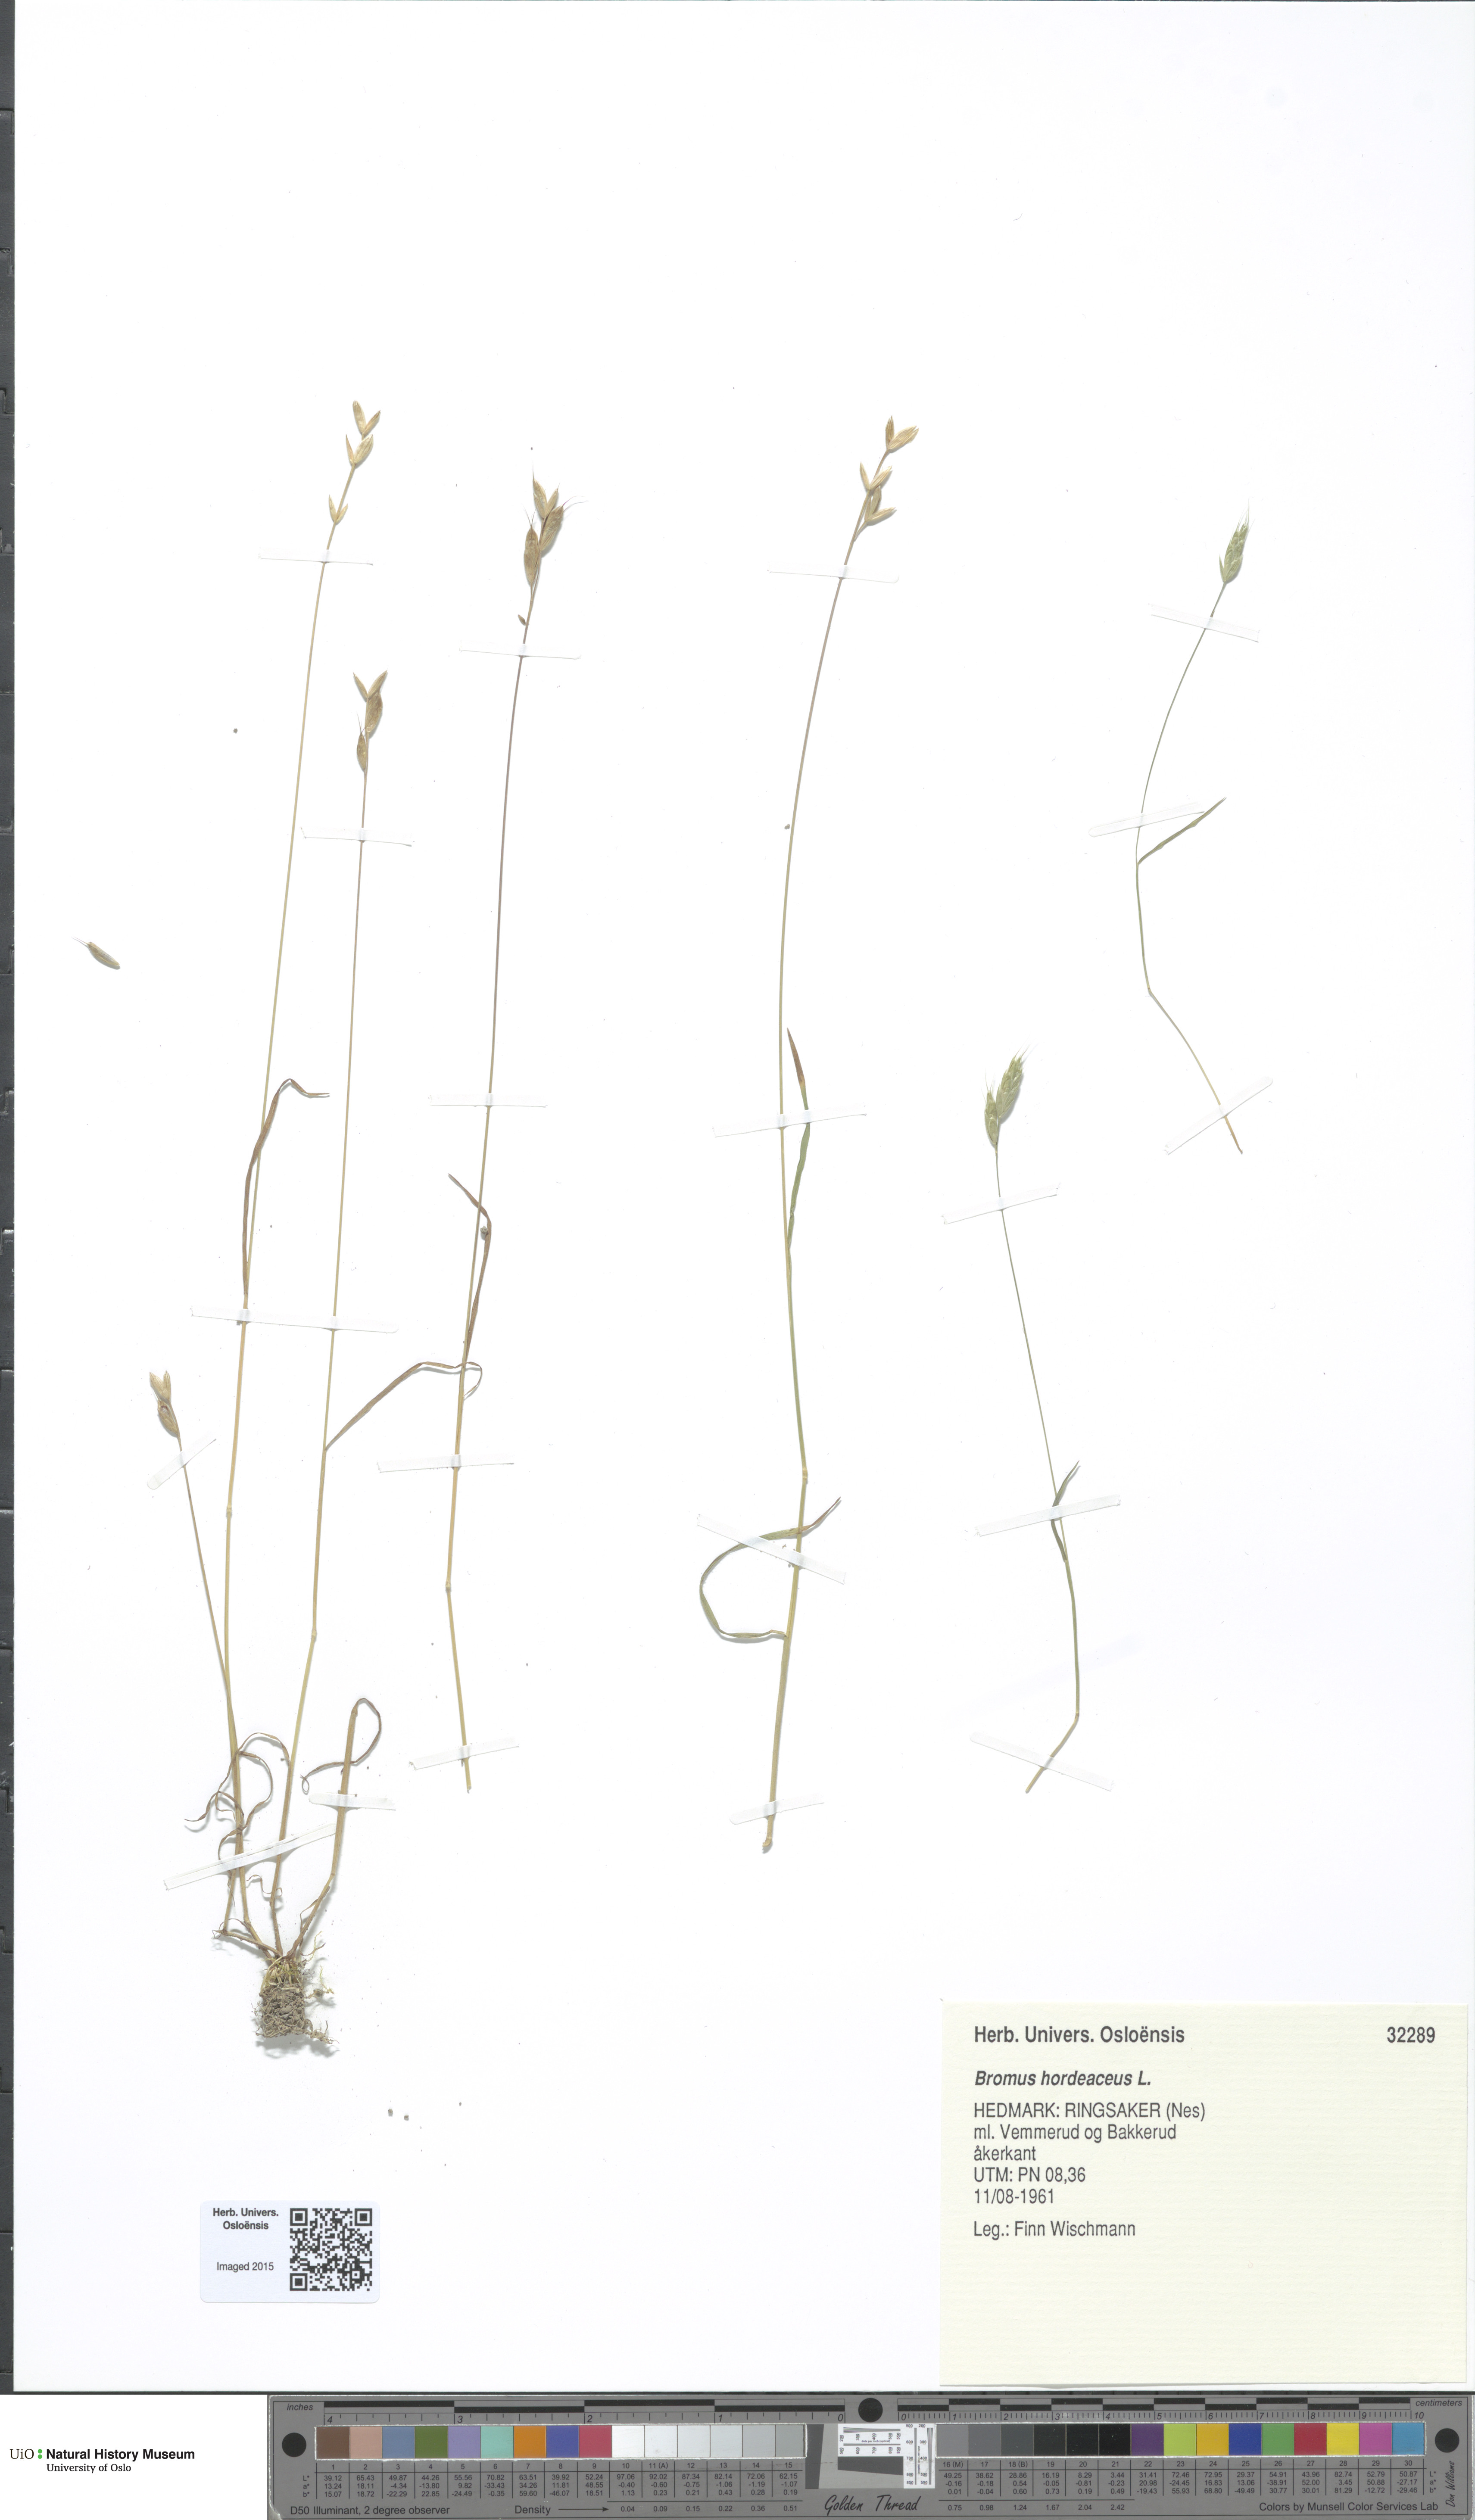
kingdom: Plantae
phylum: Tracheophyta
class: Liliopsida
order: Poales
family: Poaceae
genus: Bromus
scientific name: Bromus hordeaceus
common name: Soft brome
